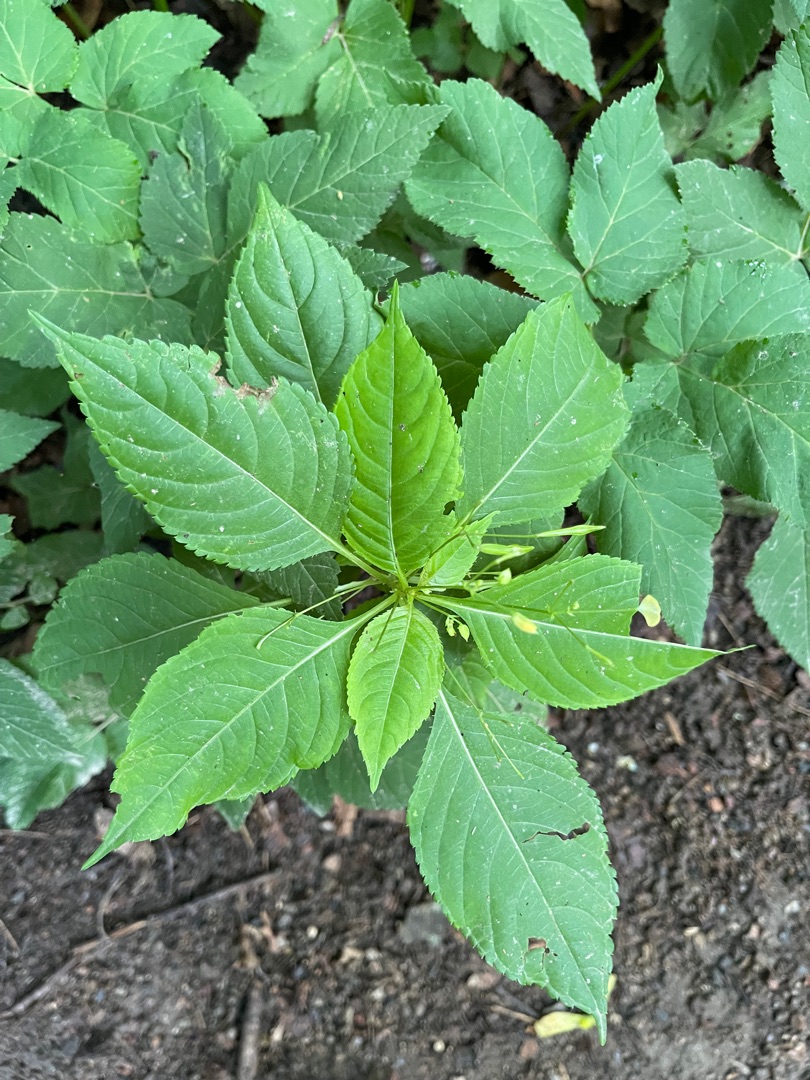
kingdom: Plantae
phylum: Tracheophyta
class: Magnoliopsida
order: Ericales
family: Balsaminaceae
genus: Impatiens
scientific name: Impatiens parviflora
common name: Småblomstret balsamin
